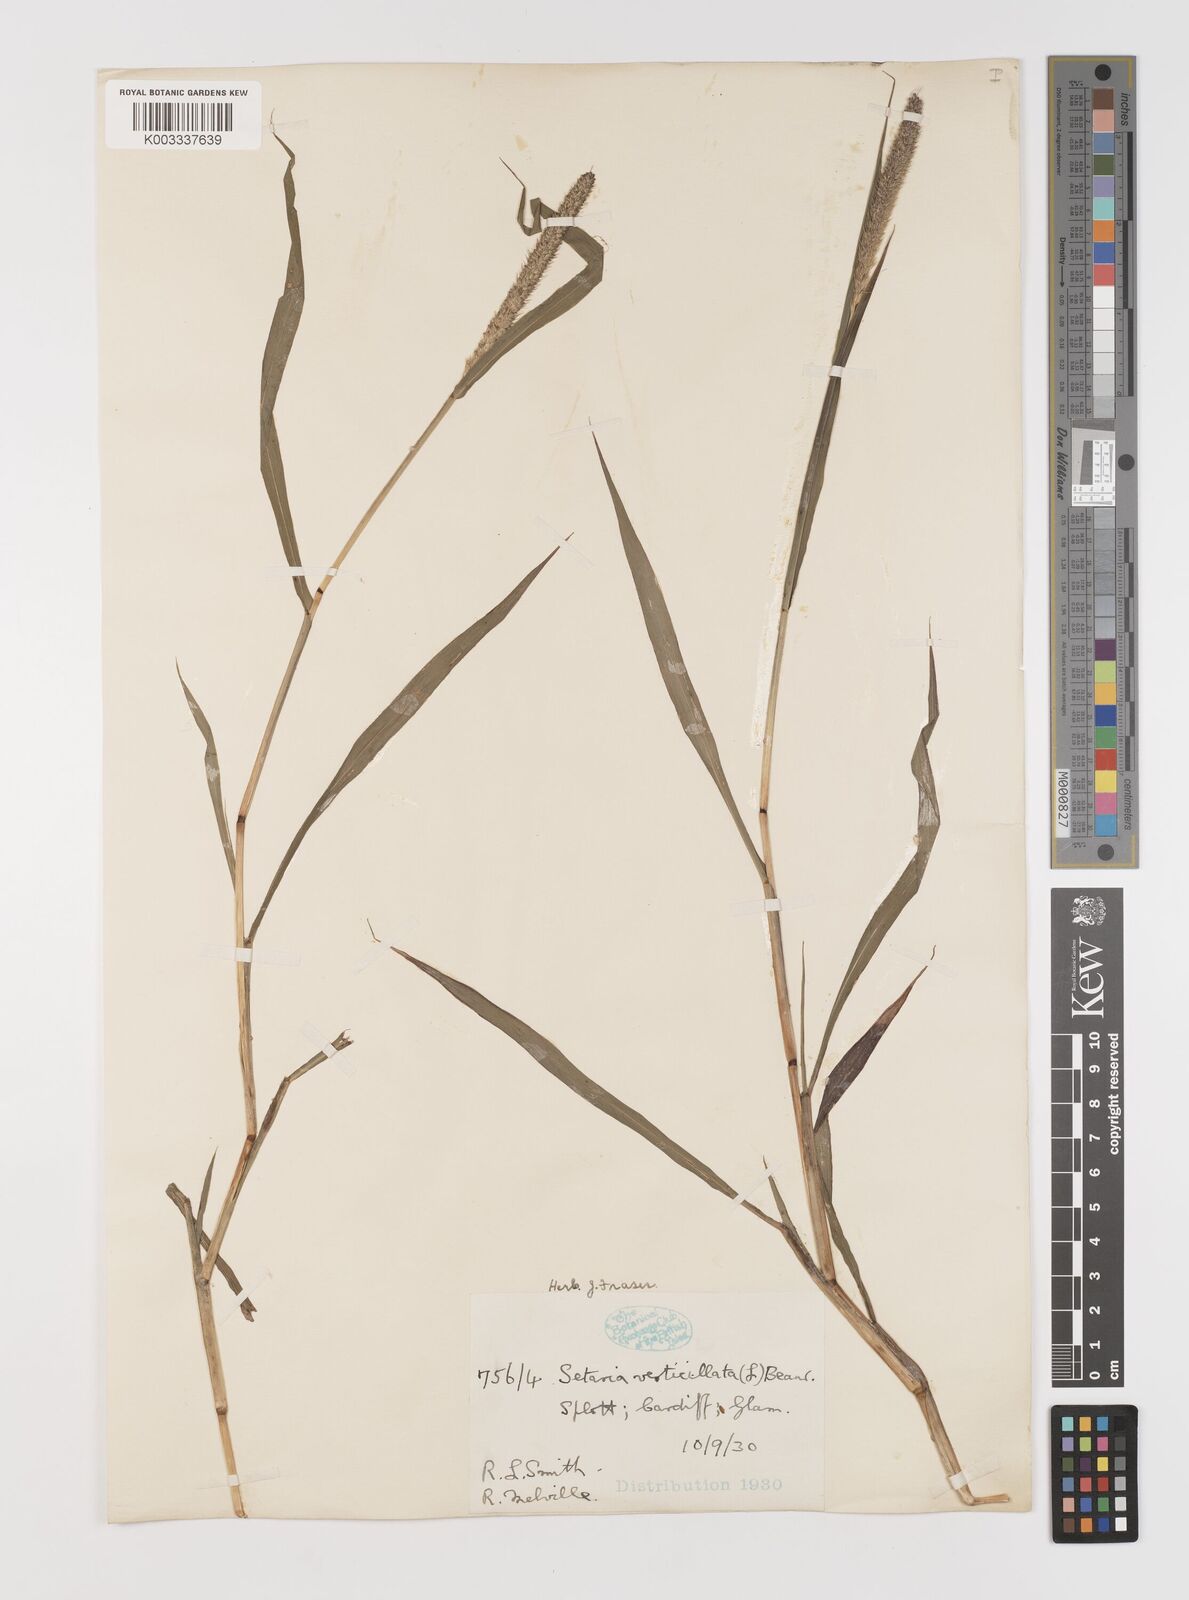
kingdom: Plantae
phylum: Tracheophyta
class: Liliopsida
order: Poales
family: Poaceae
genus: Setaria
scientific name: Setaria verticillata
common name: Hooked bristlegrass
